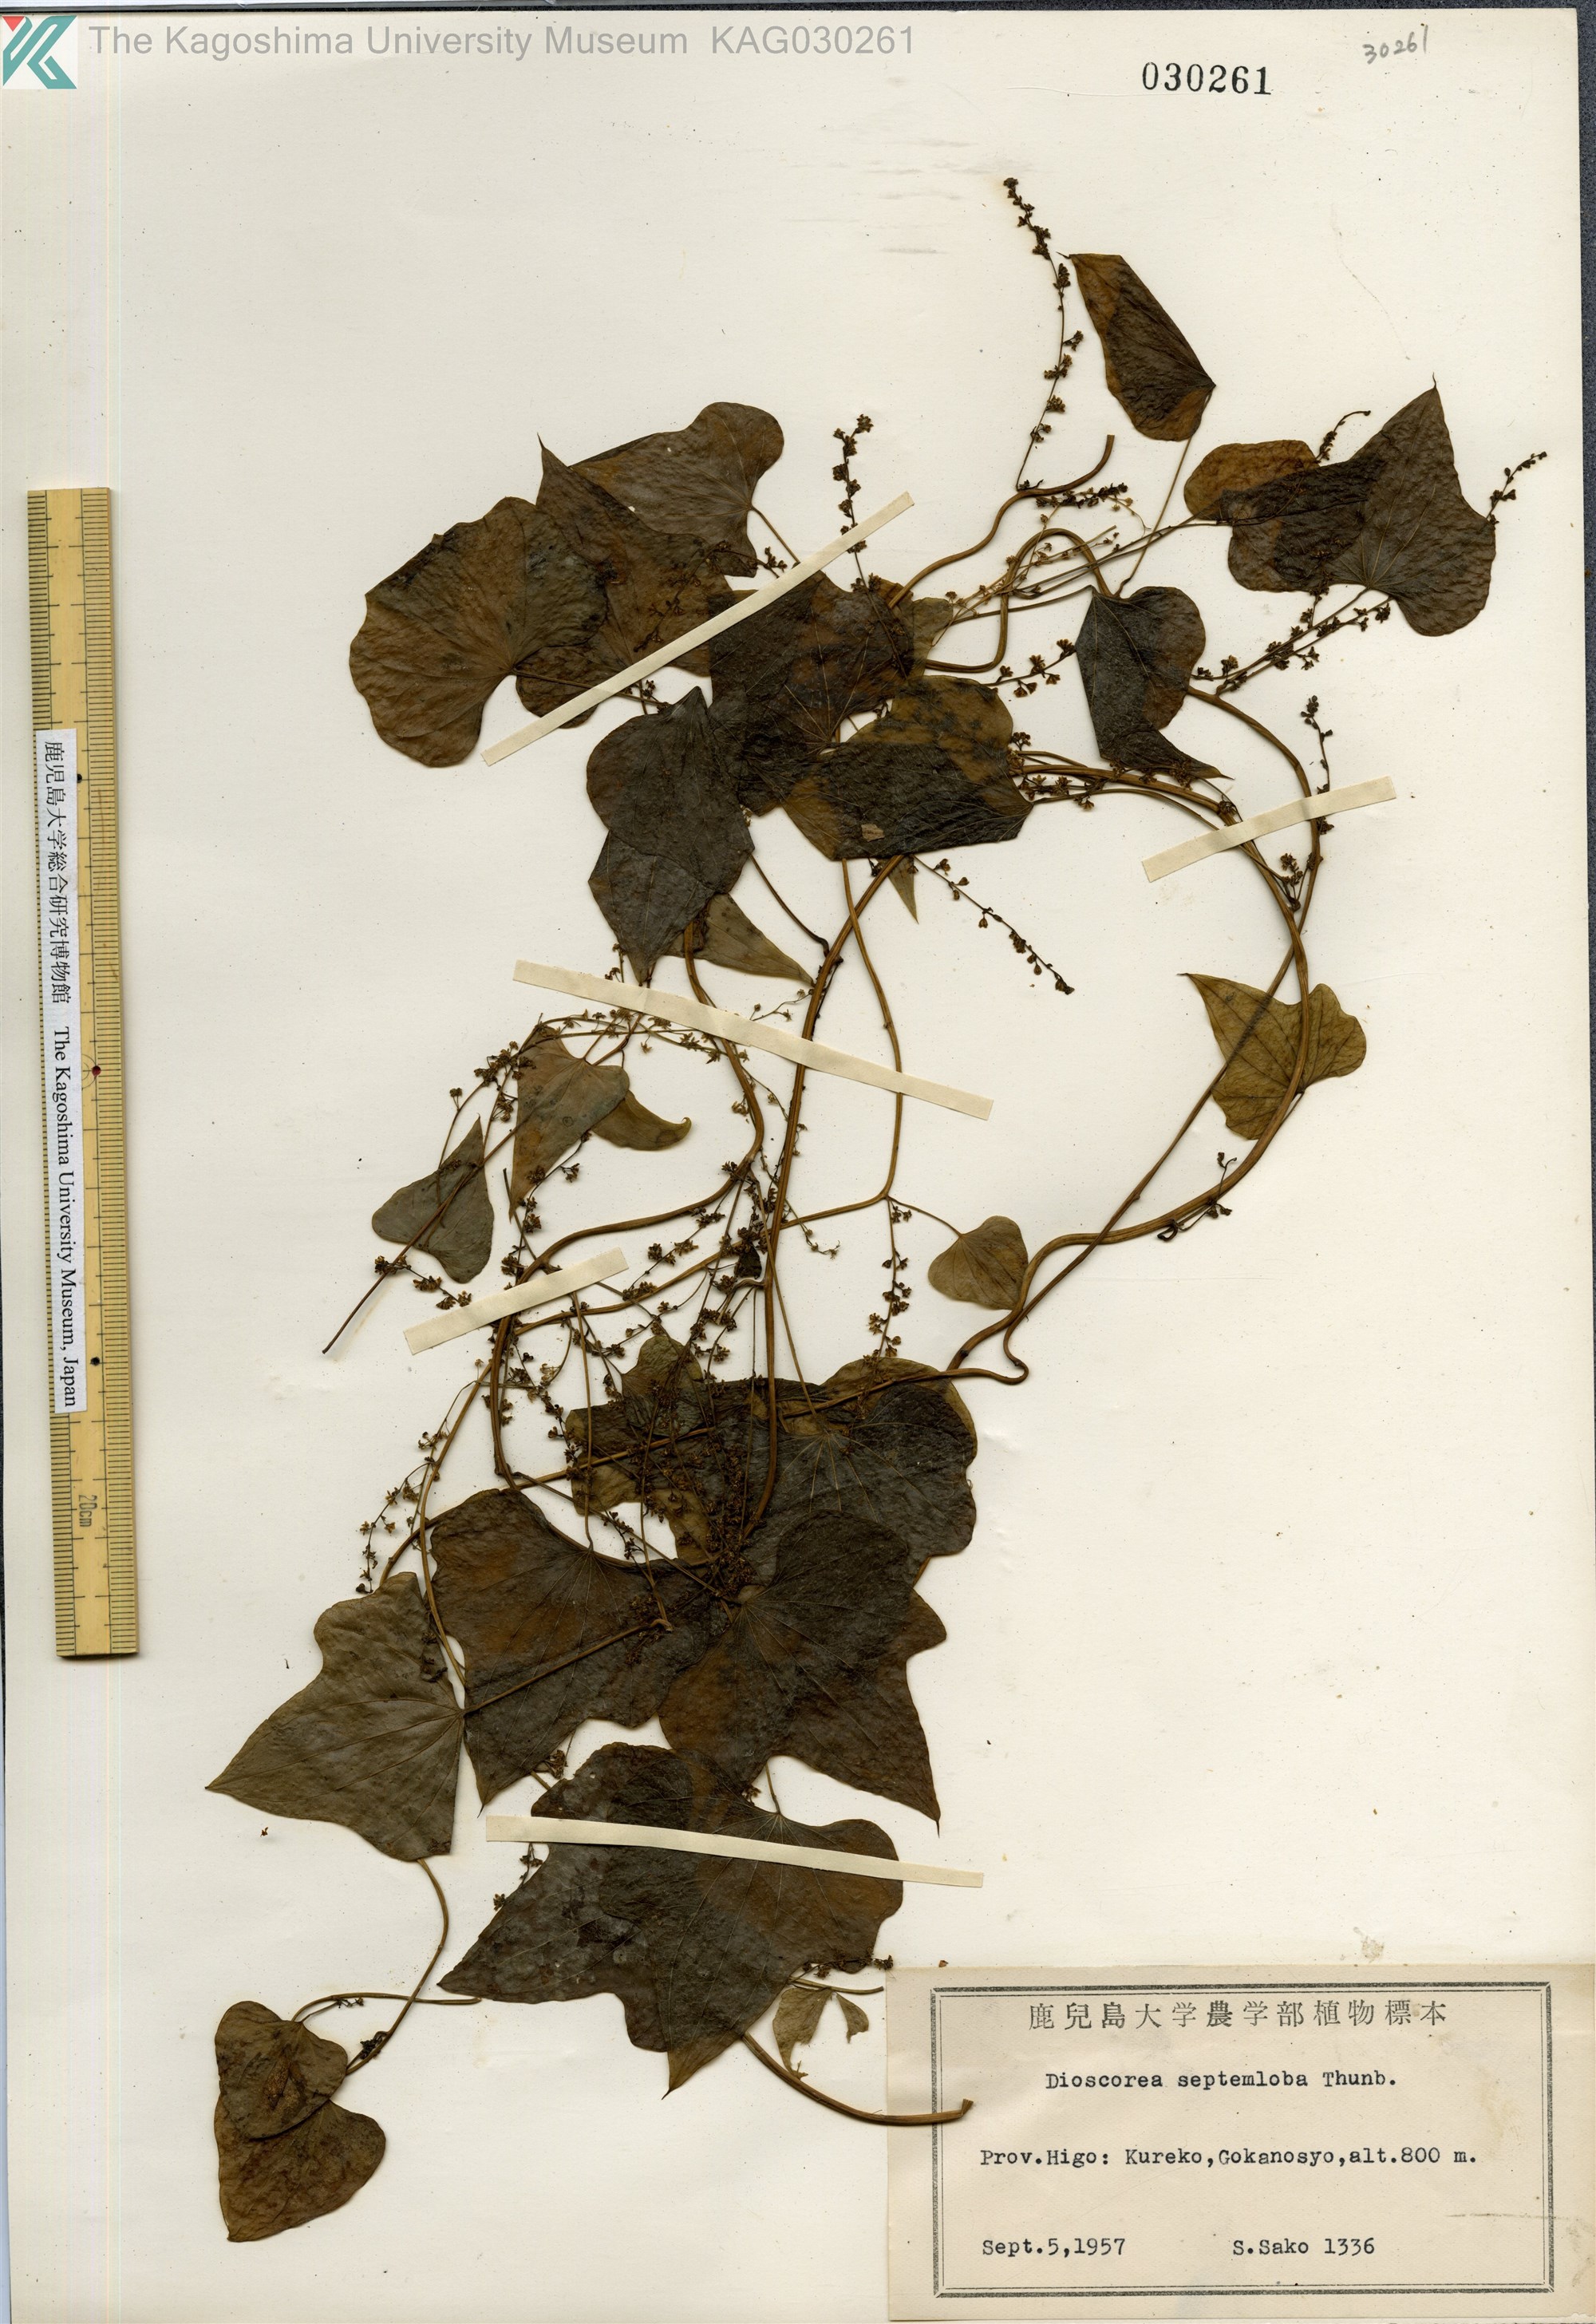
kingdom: Plantae
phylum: Tracheophyta
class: Liliopsida
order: Dioscoreales
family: Dioscoreaceae
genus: Dioscorea
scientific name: Dioscorea septemloba
